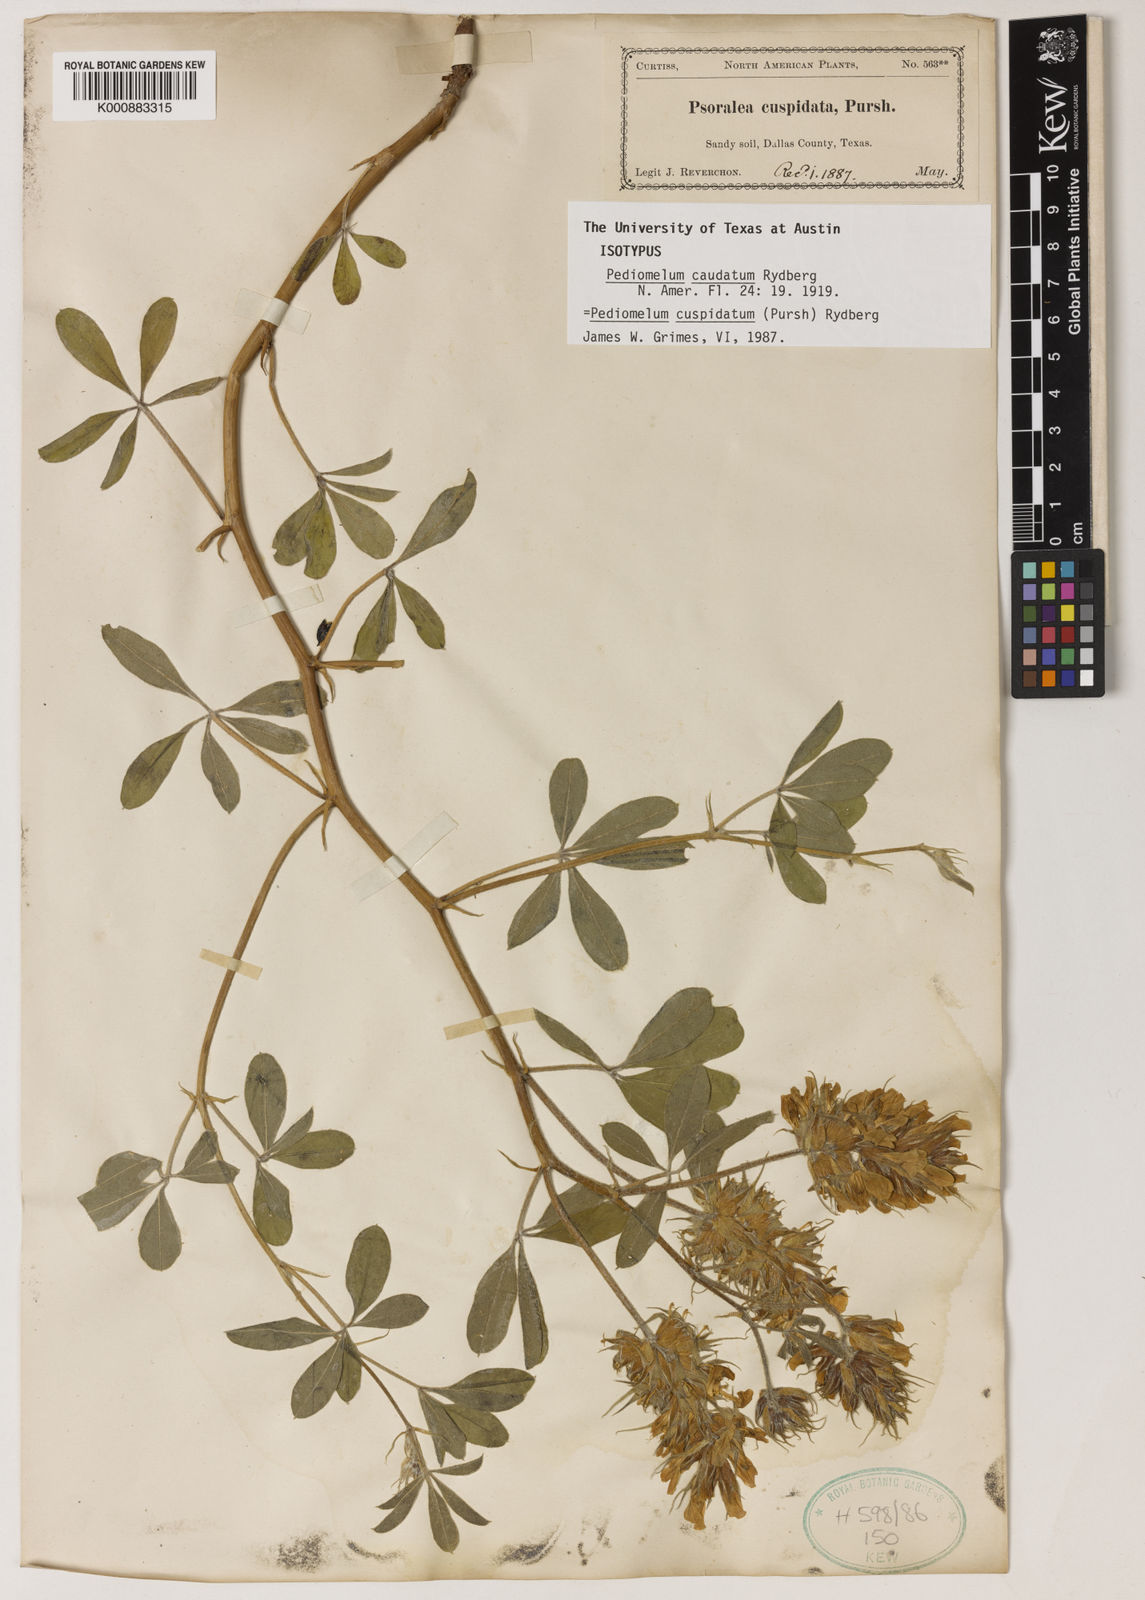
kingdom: Plantae
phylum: Tracheophyta
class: Magnoliopsida
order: Fabales
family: Fabaceae
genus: Pediomelum
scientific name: Pediomelum cuspidatum
